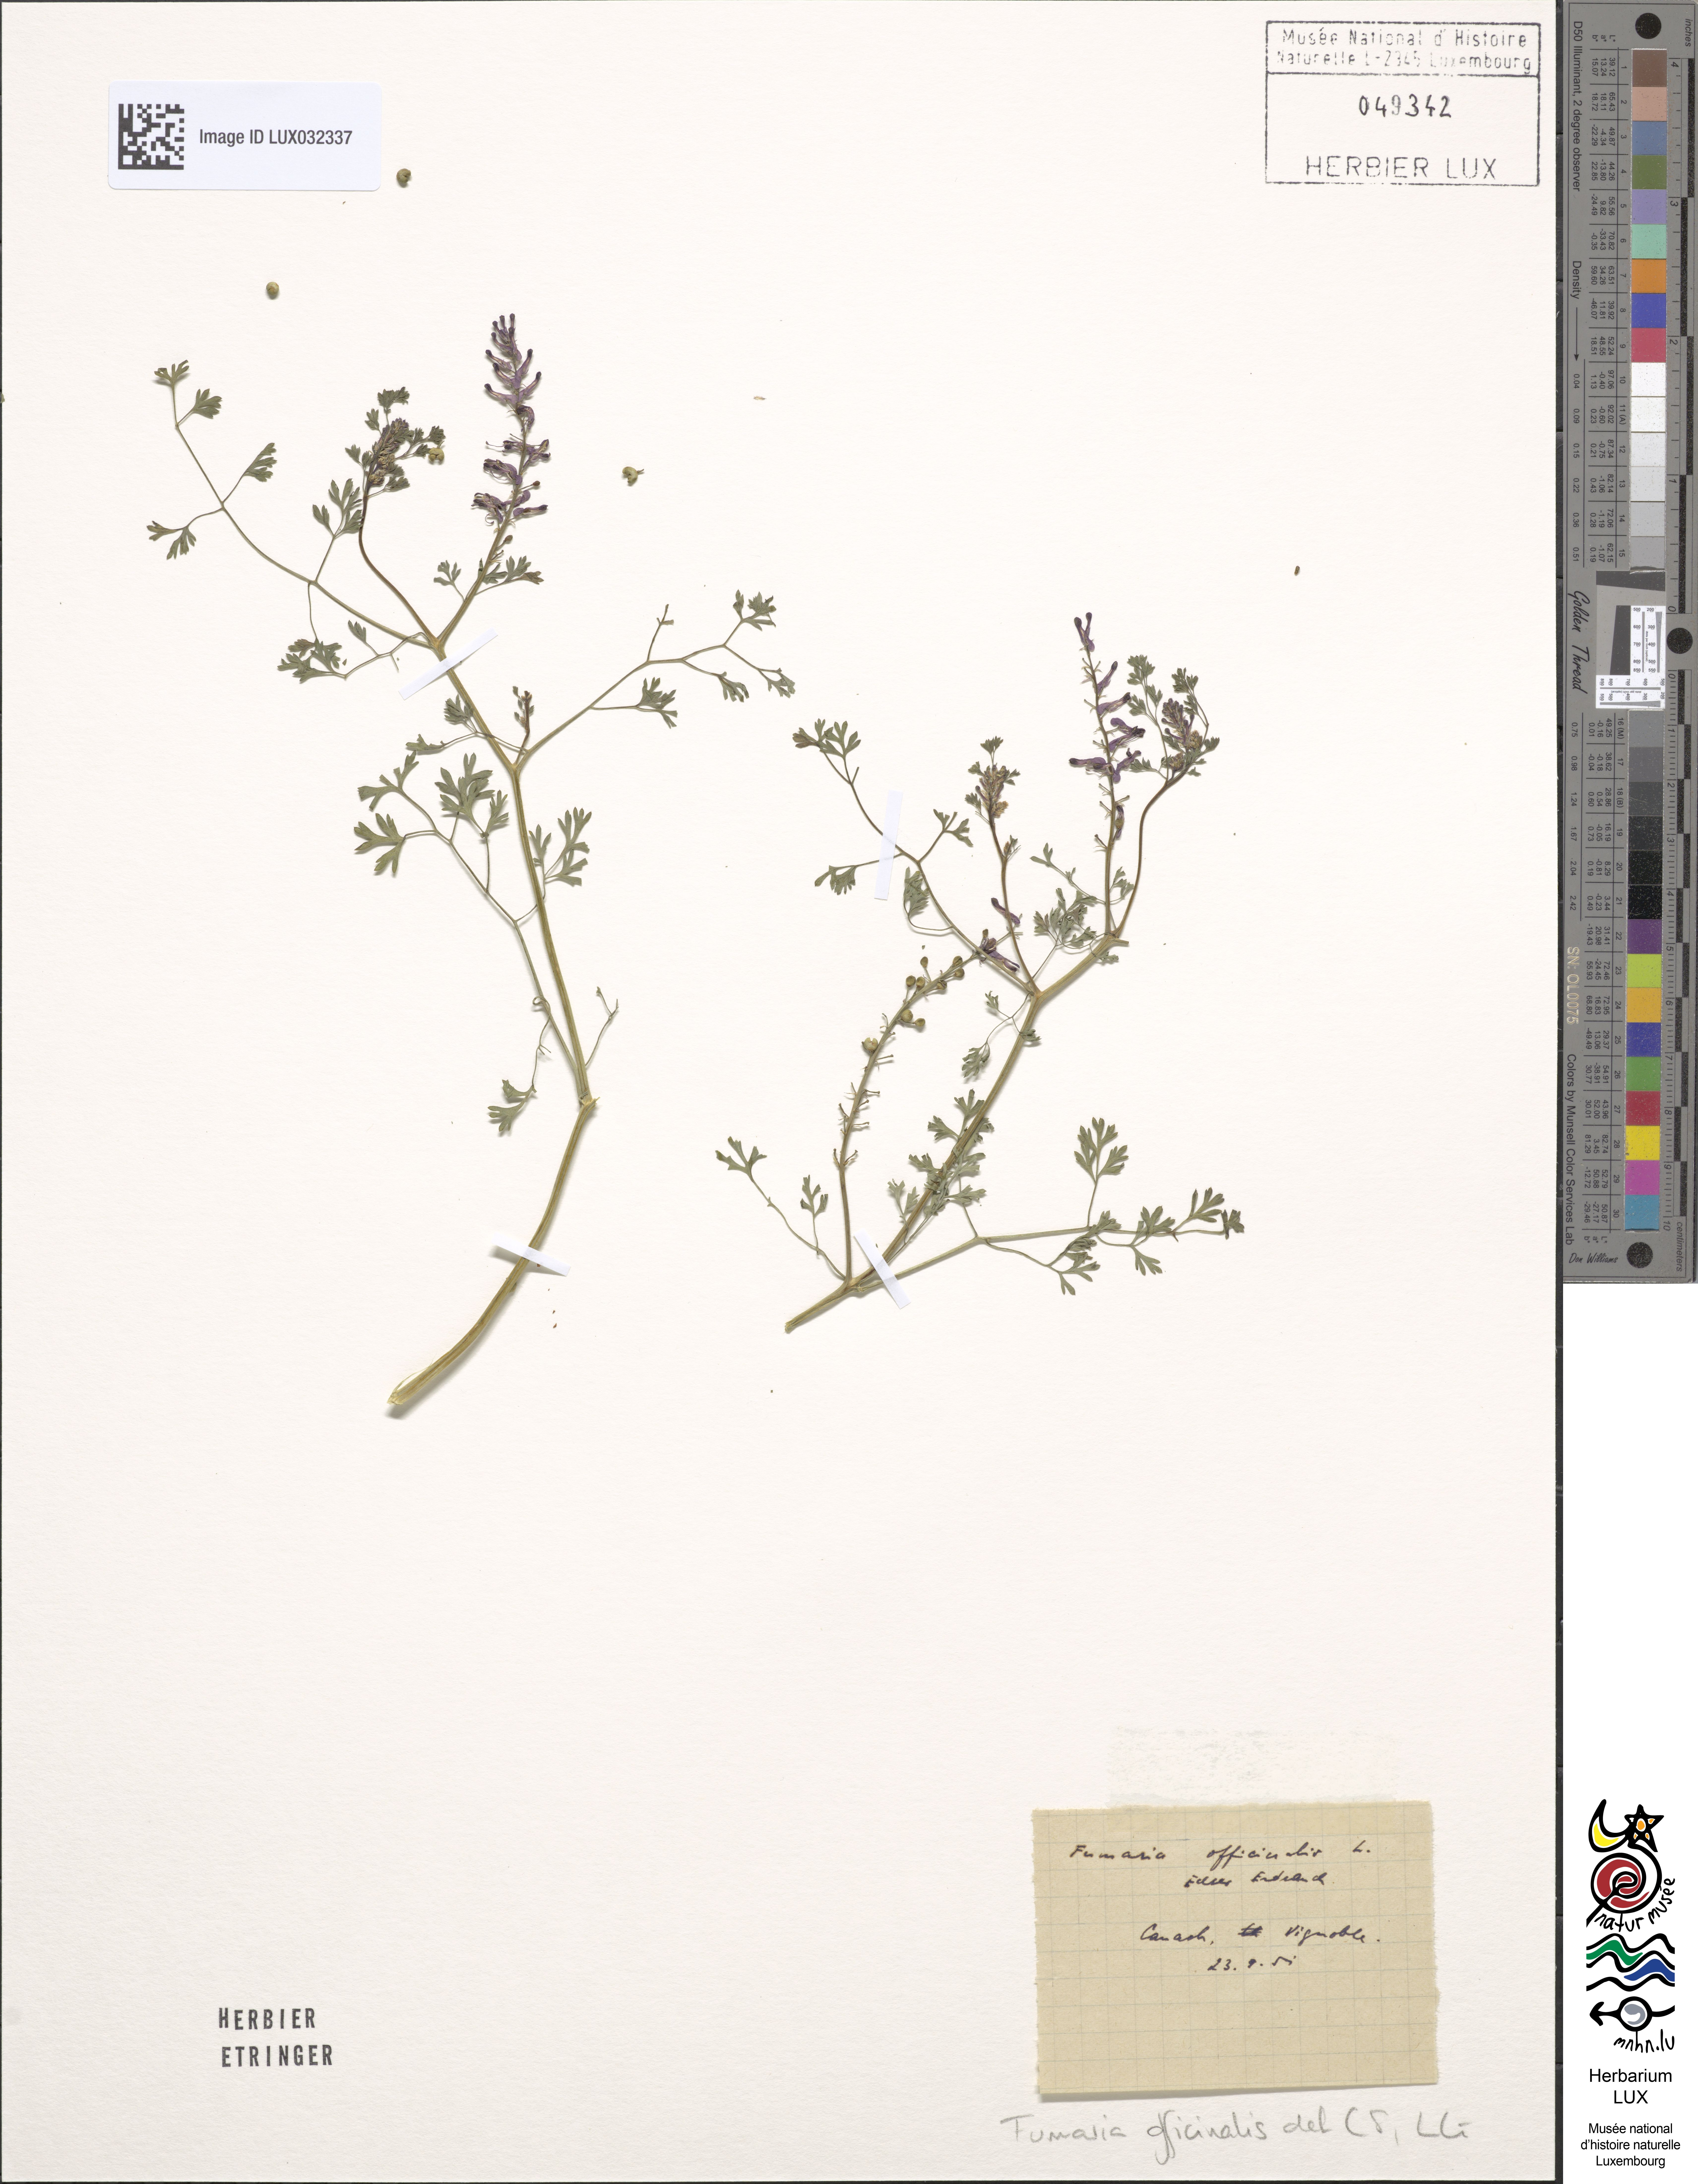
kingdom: Plantae
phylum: Tracheophyta
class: Magnoliopsida
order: Ranunculales
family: Papaveraceae
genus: Fumaria
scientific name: Fumaria officinalis
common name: Common fumitory
